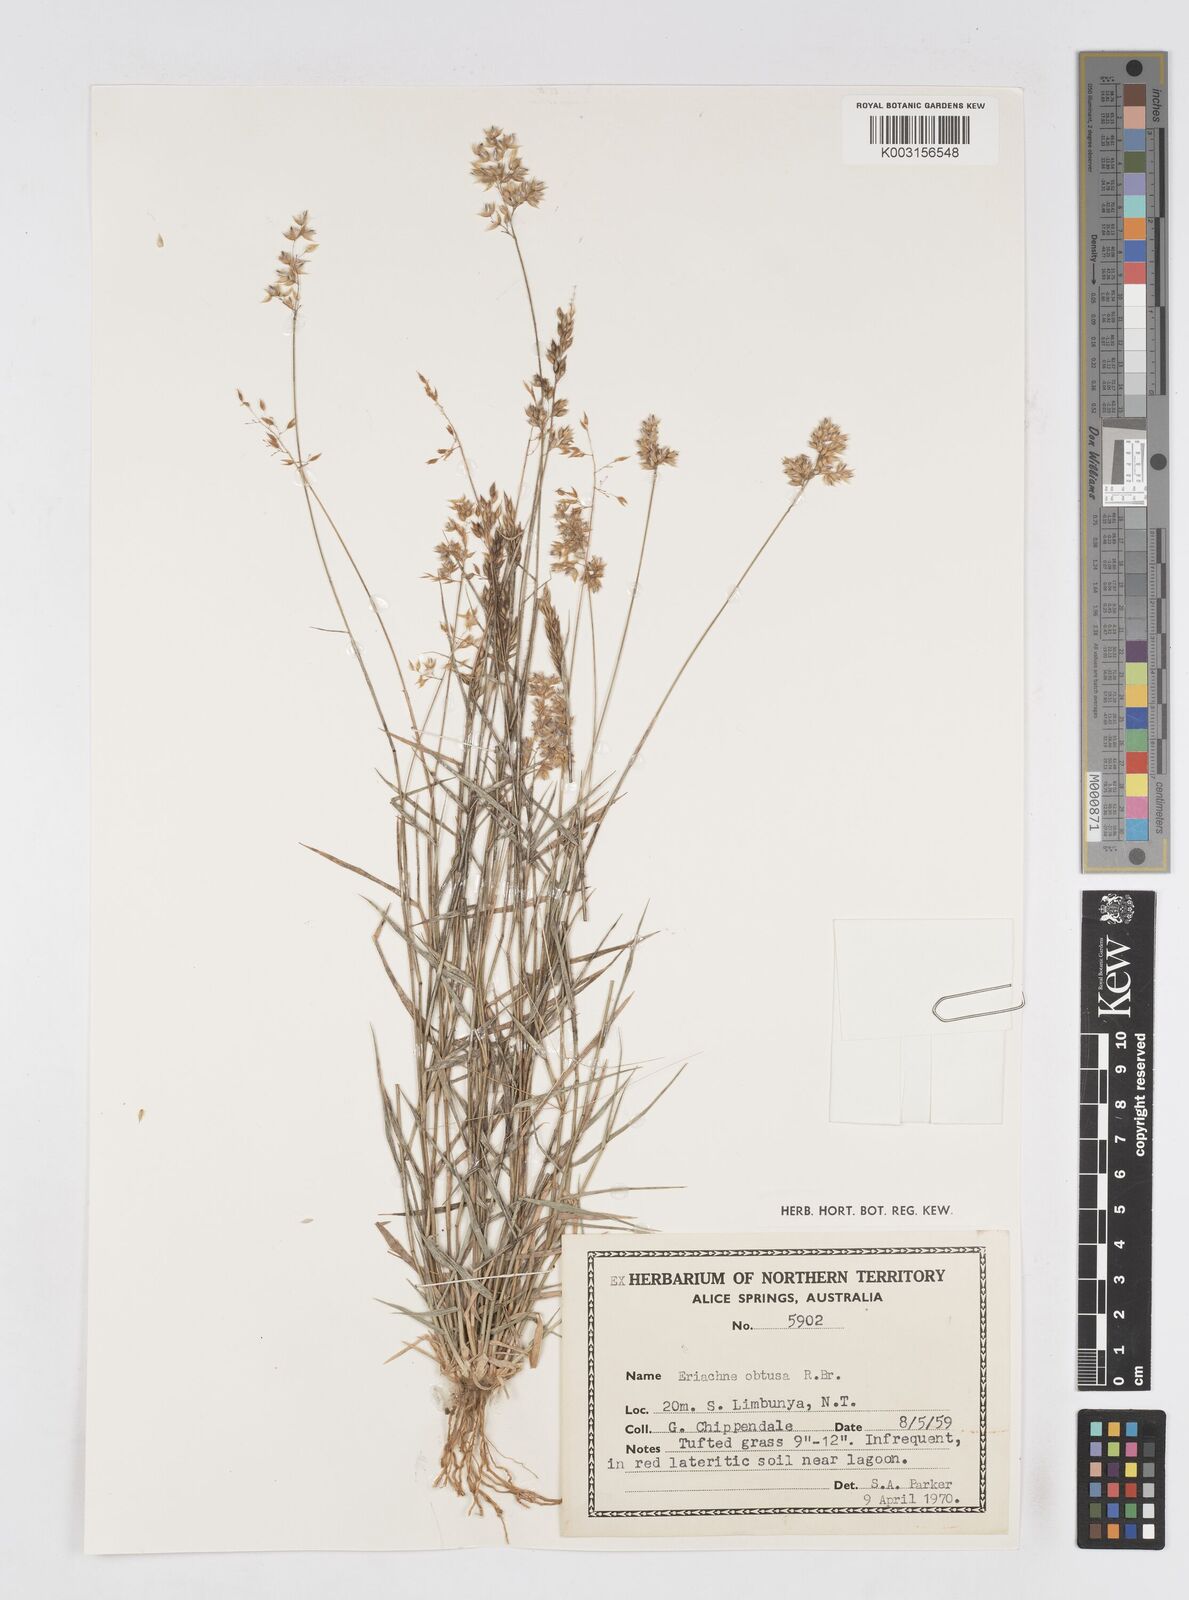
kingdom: Plantae
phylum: Tracheophyta
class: Liliopsida
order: Poales
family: Poaceae
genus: Eriachne
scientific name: Eriachne obtusa
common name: Northern wanderrie grass
